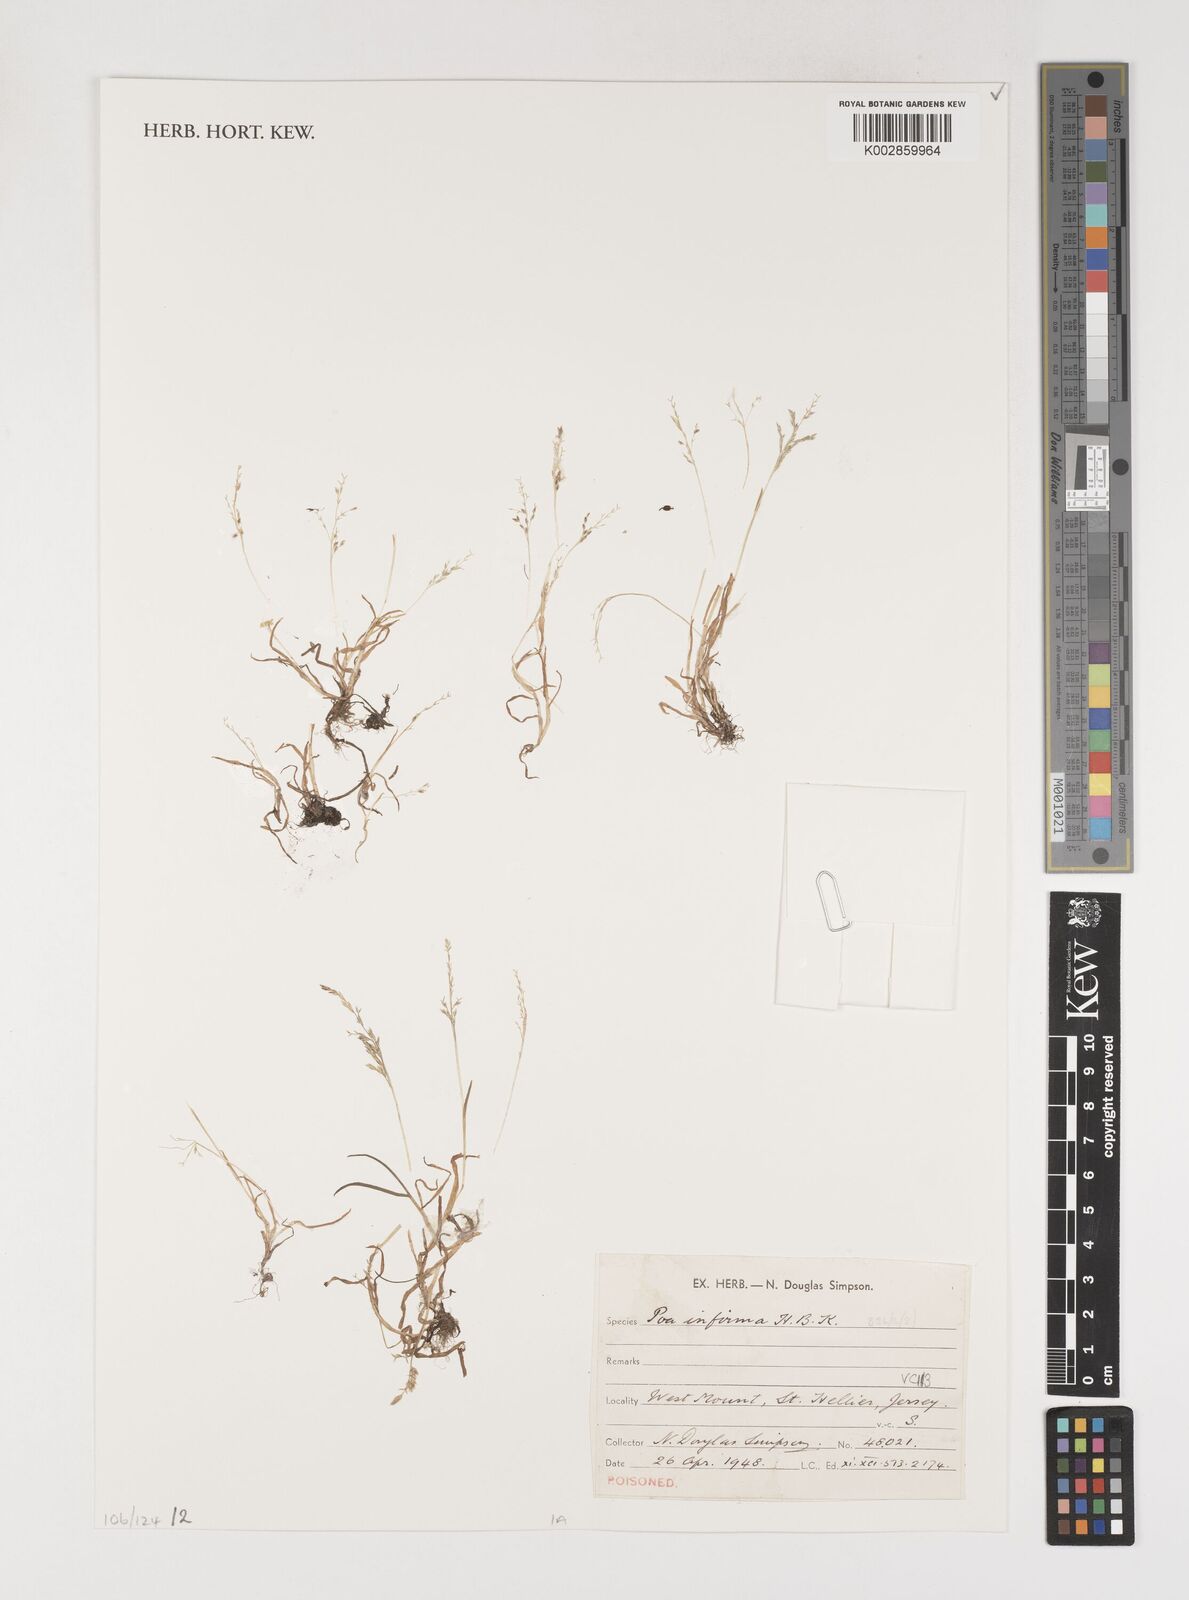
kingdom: Plantae
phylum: Tracheophyta
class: Liliopsida
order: Poales
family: Poaceae
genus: Poa
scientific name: Poa infirma
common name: Weak bluegrass
